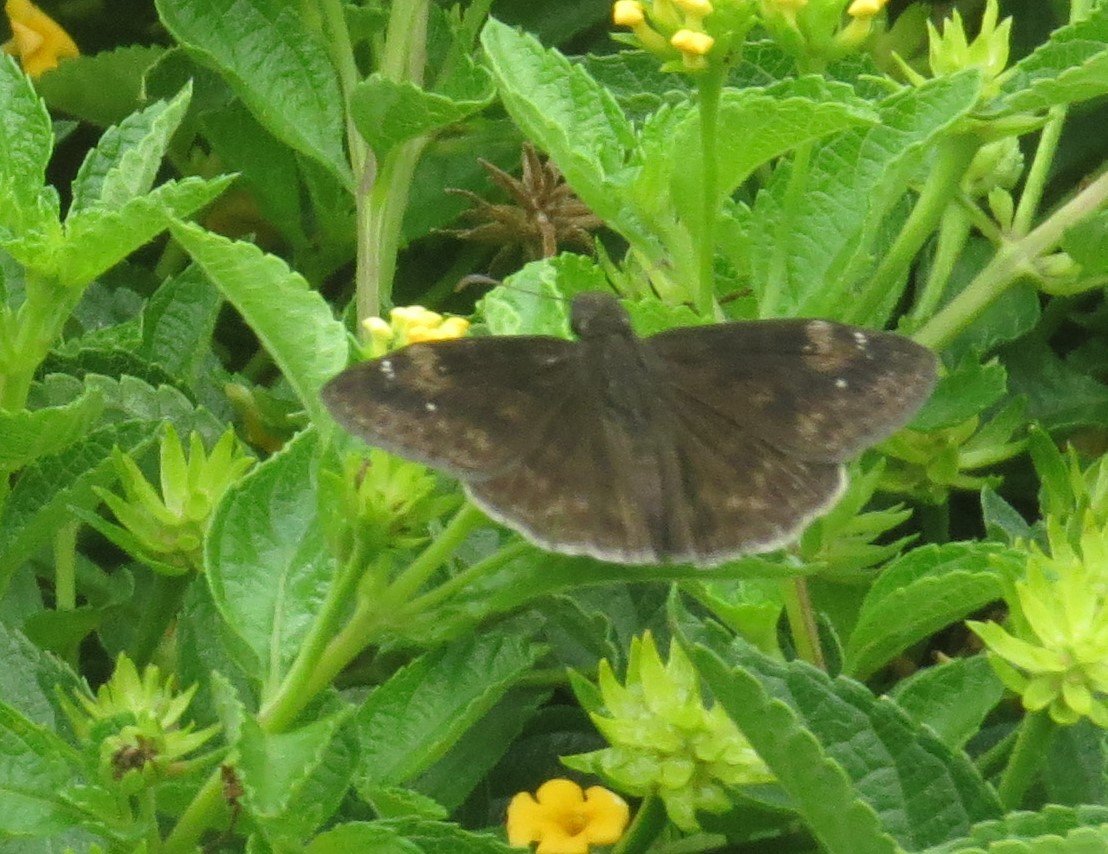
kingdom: Animalia
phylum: Arthropoda
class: Insecta
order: Lepidoptera
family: Hesperiidae
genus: Gesta
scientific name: Gesta
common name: Horace's Duskywing
